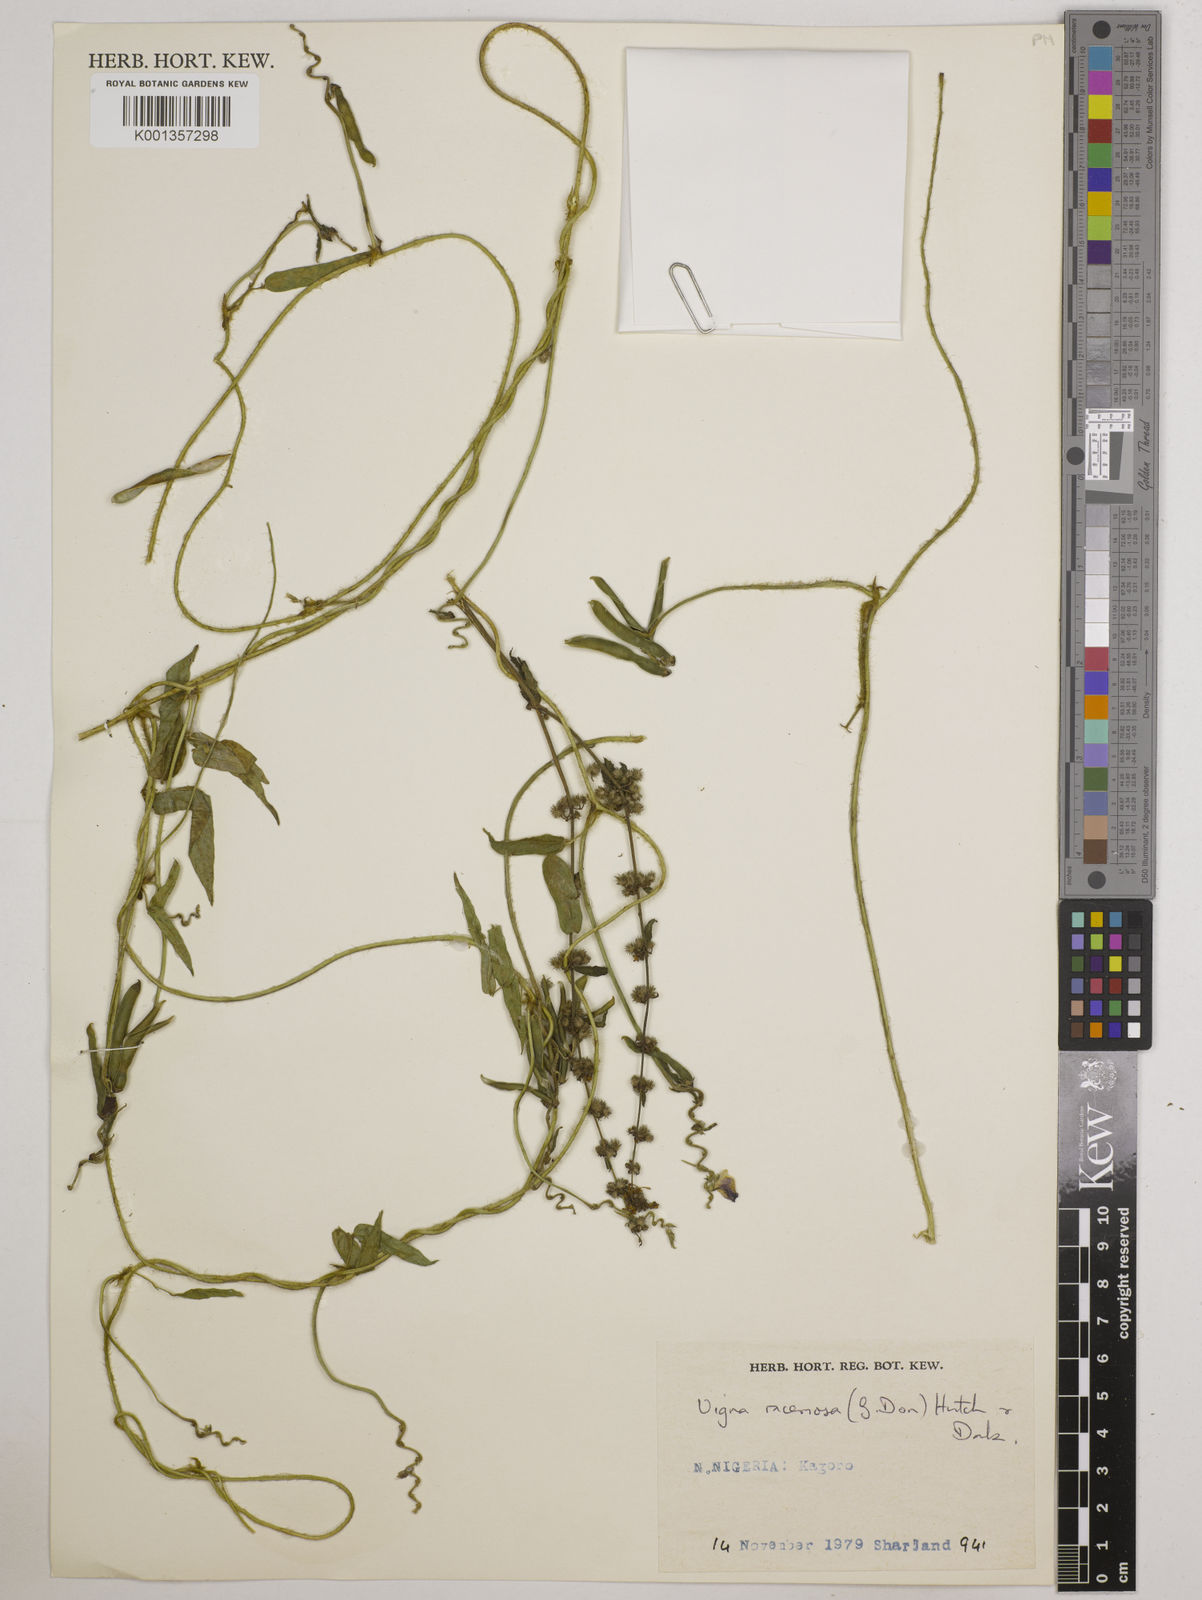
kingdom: Plantae
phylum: Tracheophyta
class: Magnoliopsida
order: Fabales
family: Fabaceae
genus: Vigna
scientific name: Vigna racemosa
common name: Beans not eaten
